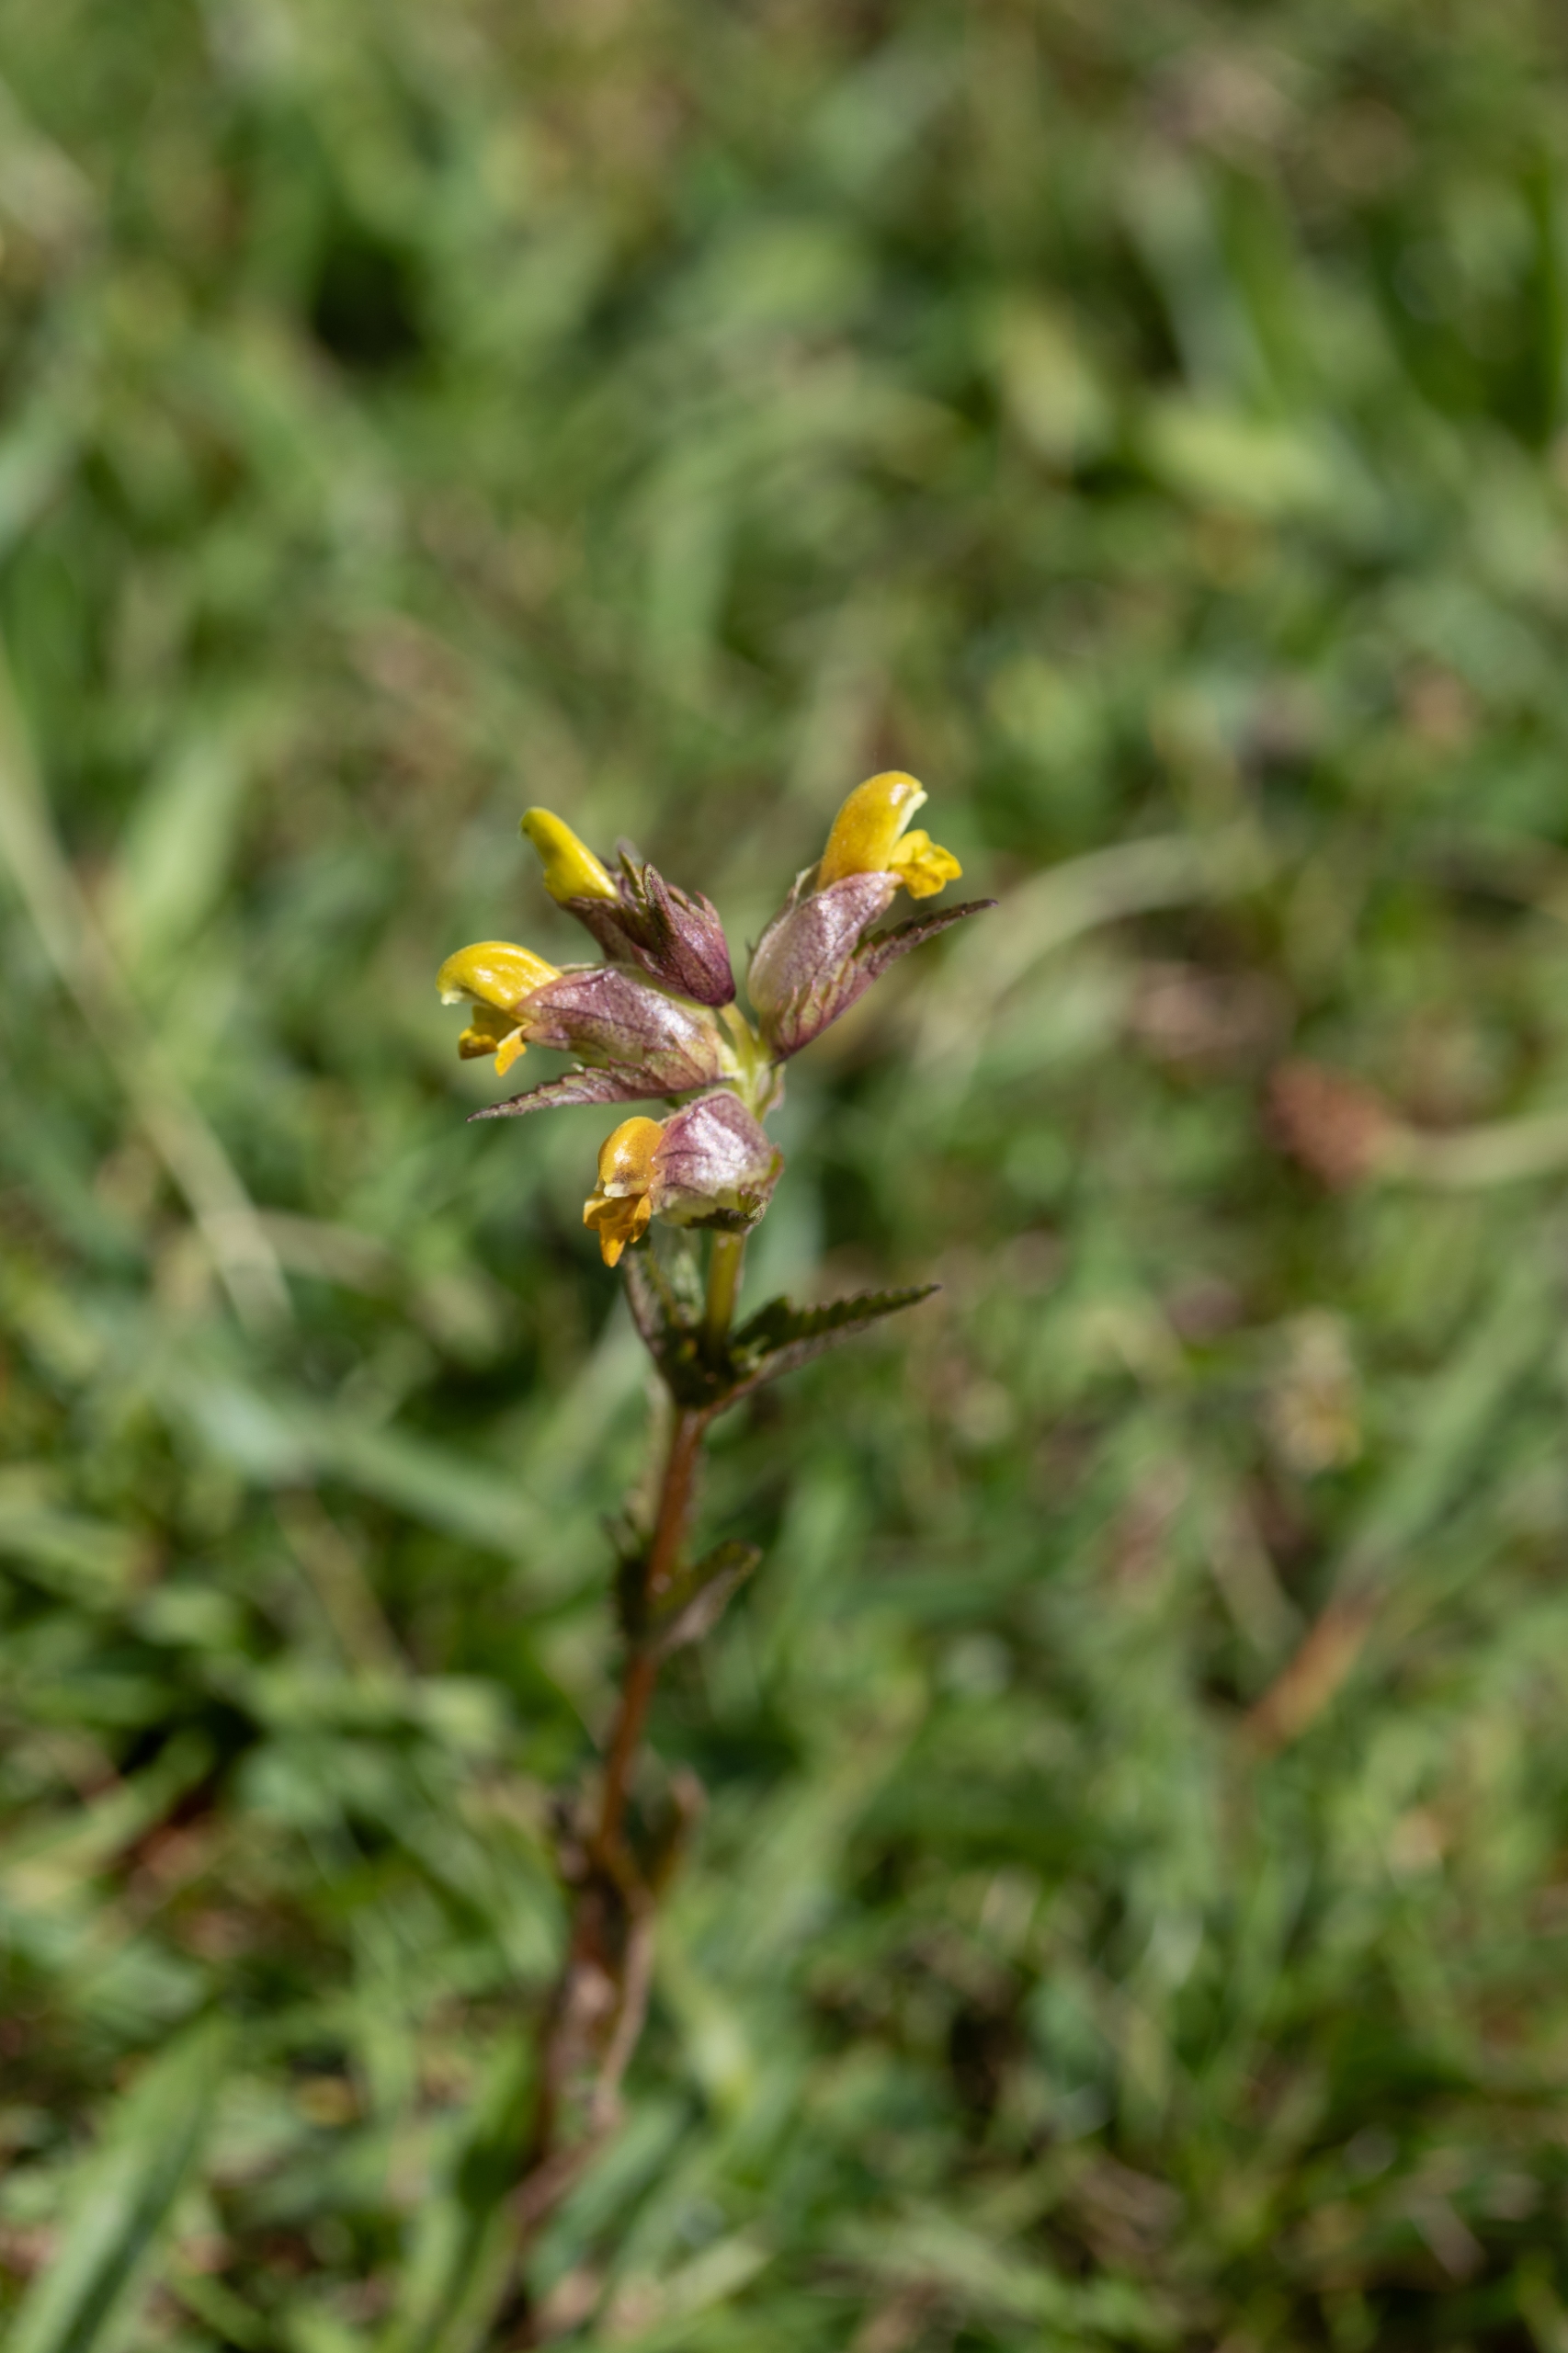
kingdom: Plantae
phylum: Tracheophyta
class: Magnoliopsida
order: Lamiales
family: Orobanchaceae
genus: Rhinanthus
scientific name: Rhinanthus minor
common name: Liden skjaller
